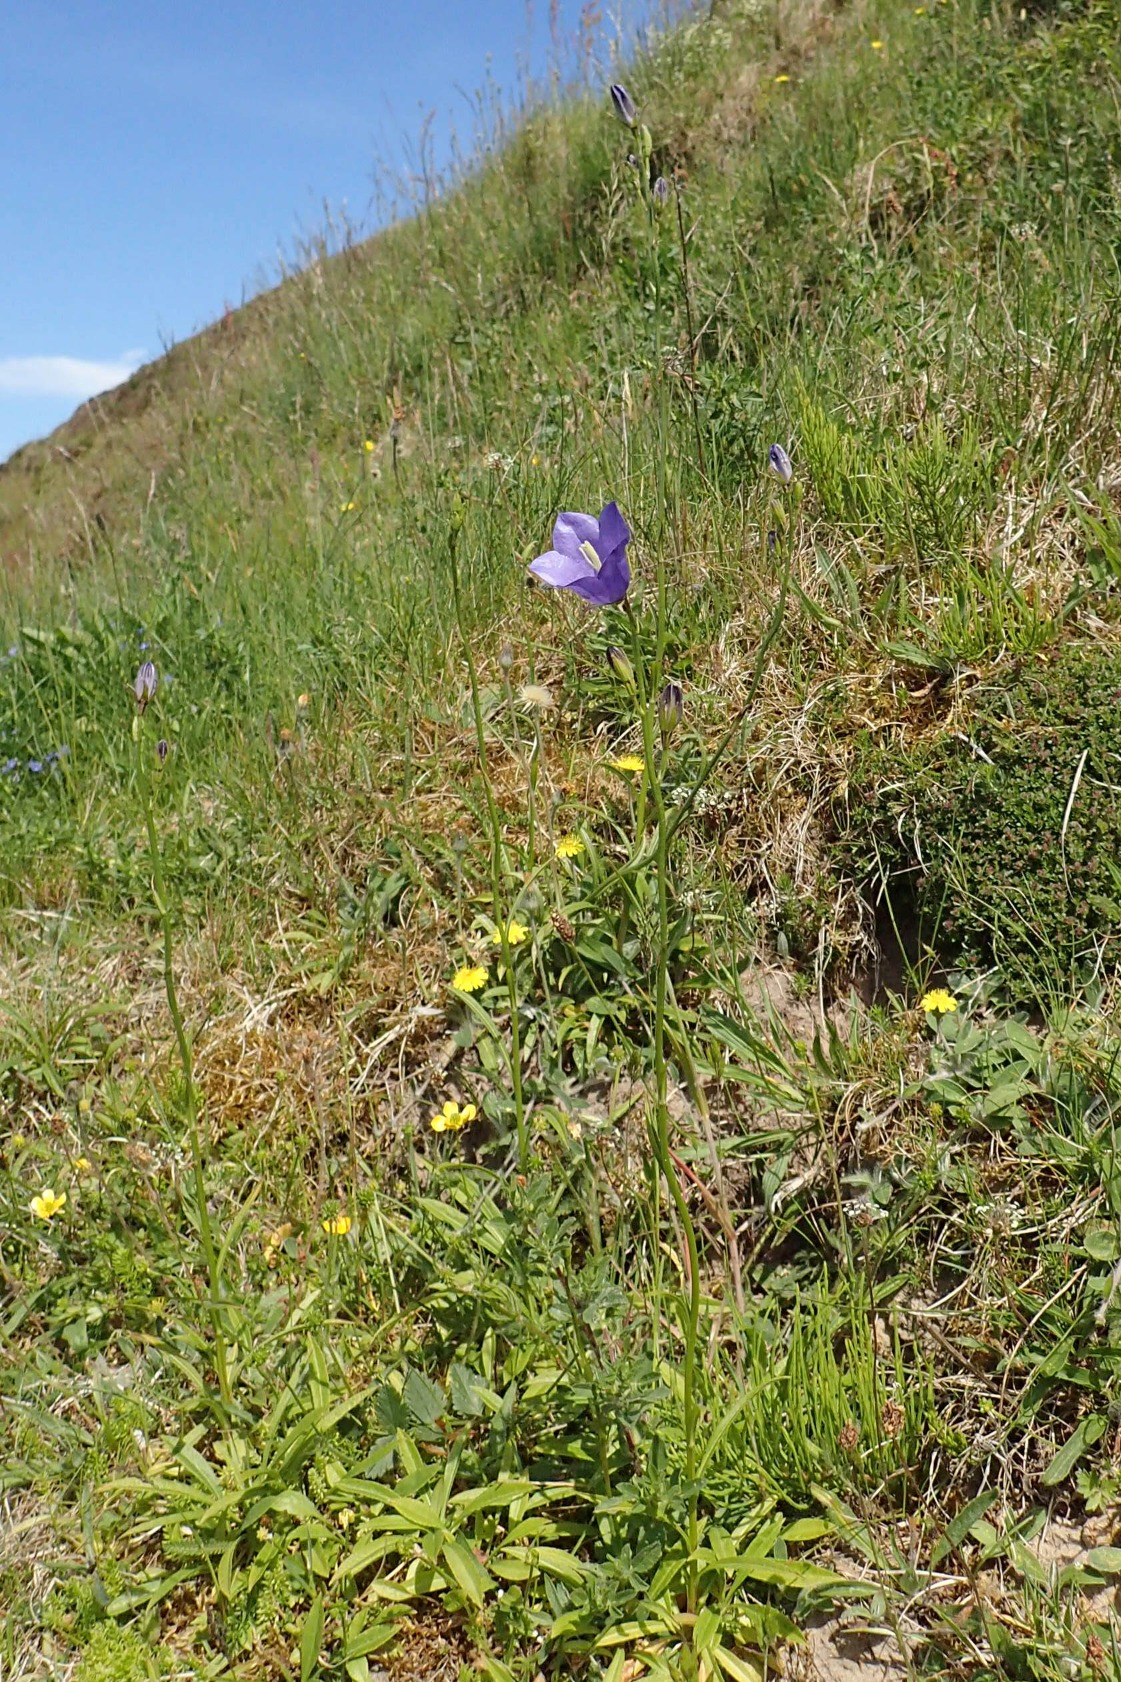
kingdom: Plantae
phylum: Tracheophyta
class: Magnoliopsida
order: Asterales
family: Campanulaceae
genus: Campanula
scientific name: Campanula persicifolia
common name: Smalbladet klokke
